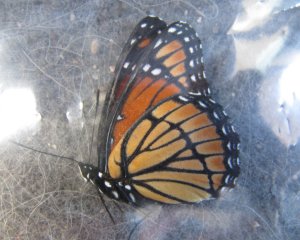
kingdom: Animalia
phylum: Arthropoda
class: Insecta
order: Lepidoptera
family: Nymphalidae
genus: Limenitis
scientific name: Limenitis archippus
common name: Viceroy
